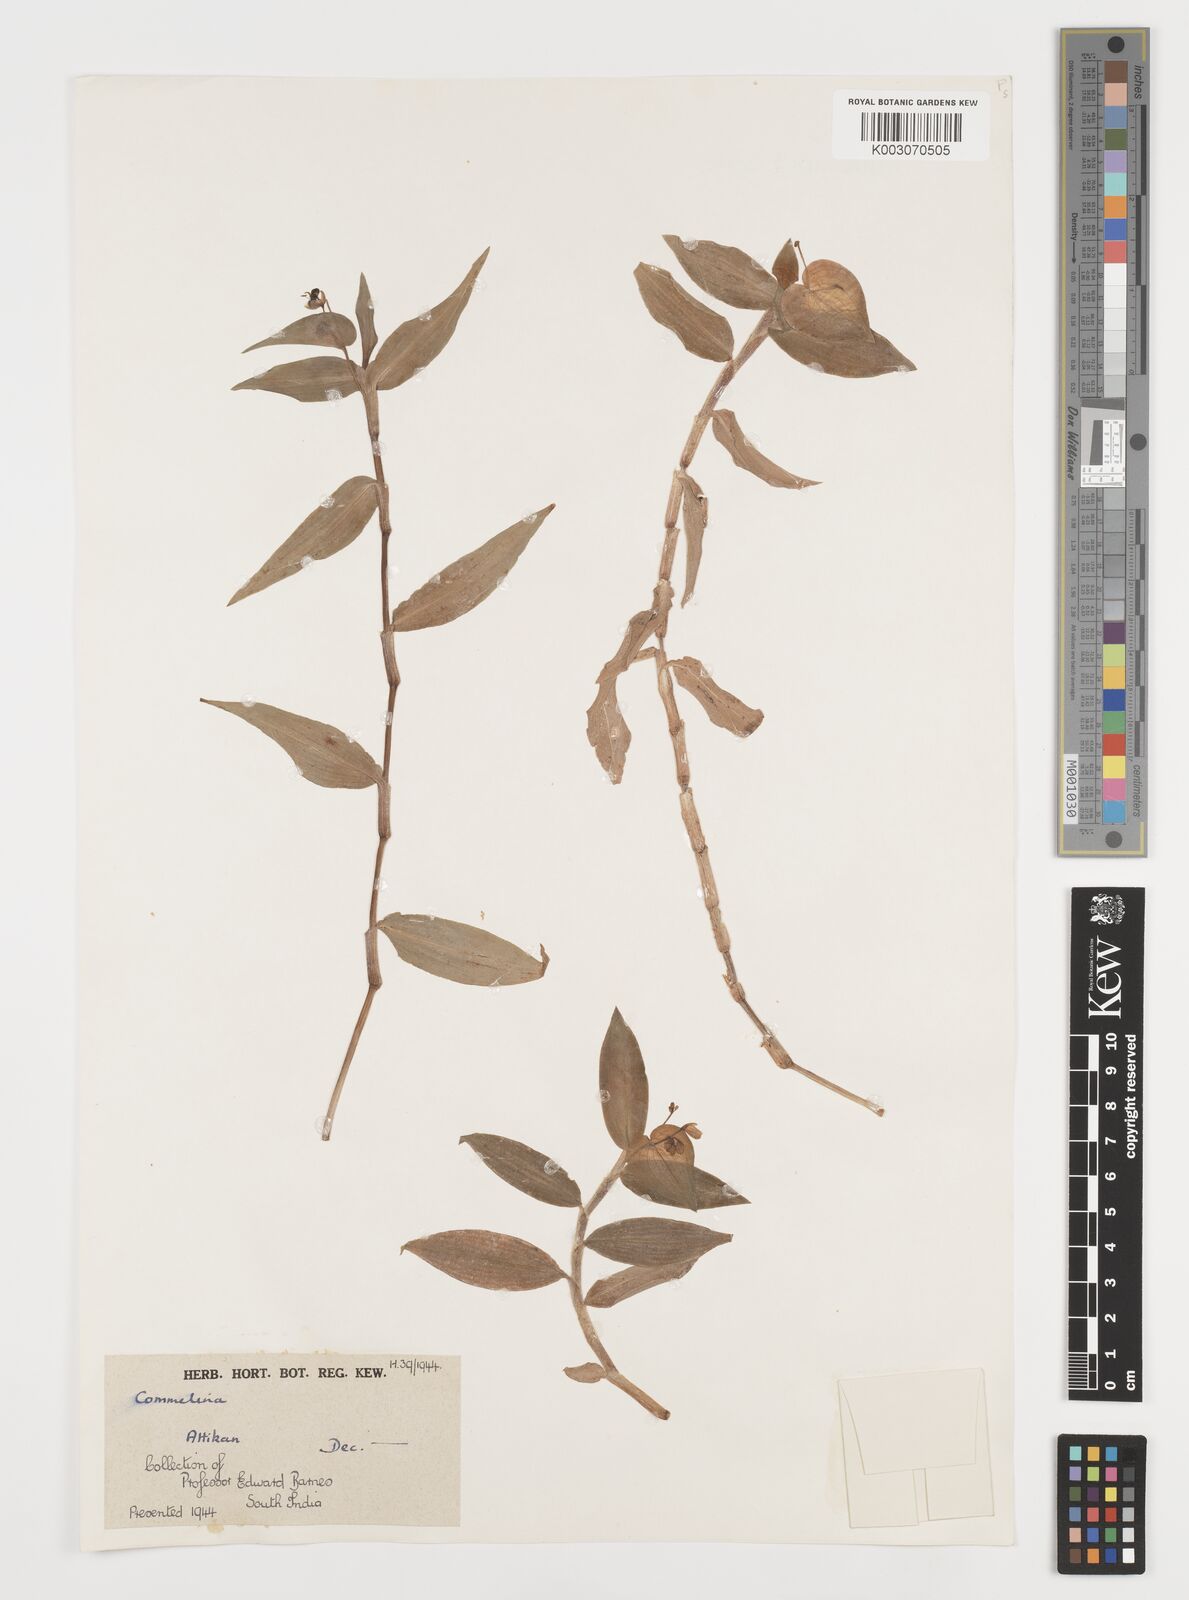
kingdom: Plantae
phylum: Tracheophyta
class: Liliopsida
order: Commelinales
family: Commelinaceae
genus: Commelina
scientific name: Commelina
